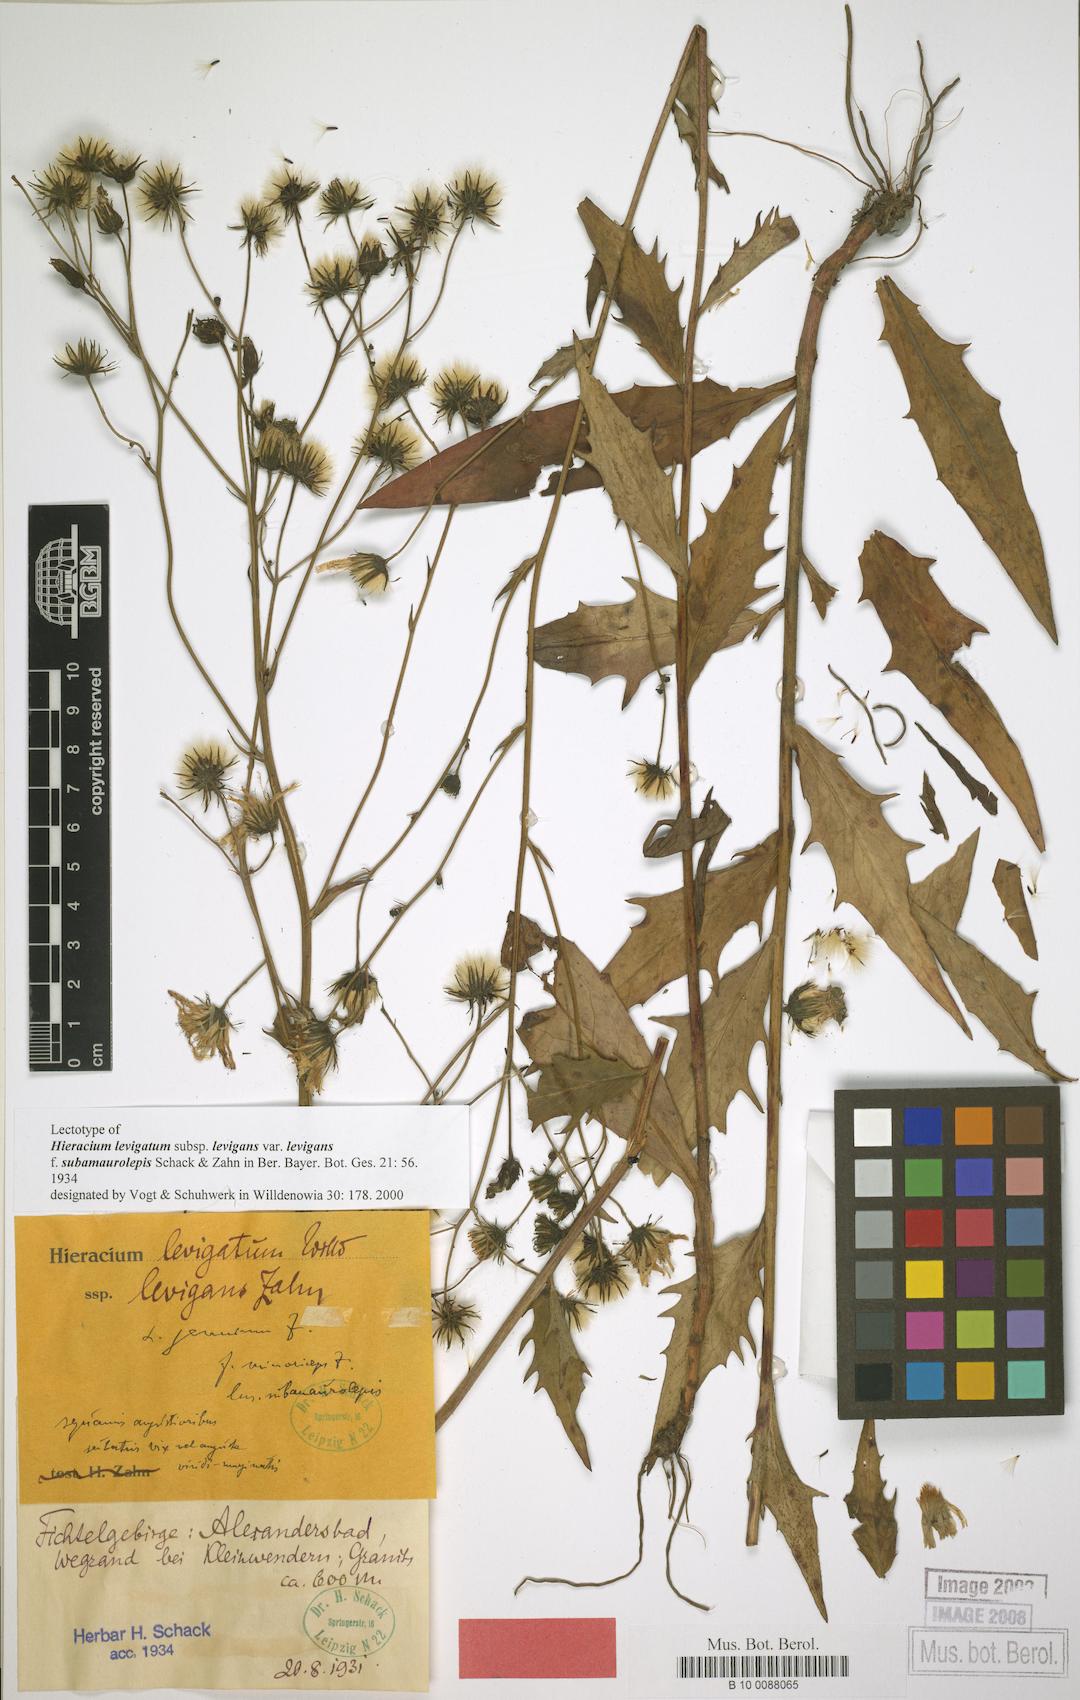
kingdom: Plantae
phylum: Tracheophyta
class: Magnoliopsida
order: Asterales
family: Asteraceae
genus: Hieracium
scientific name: Hieracium laevigatum
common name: Smooth hawkweed
